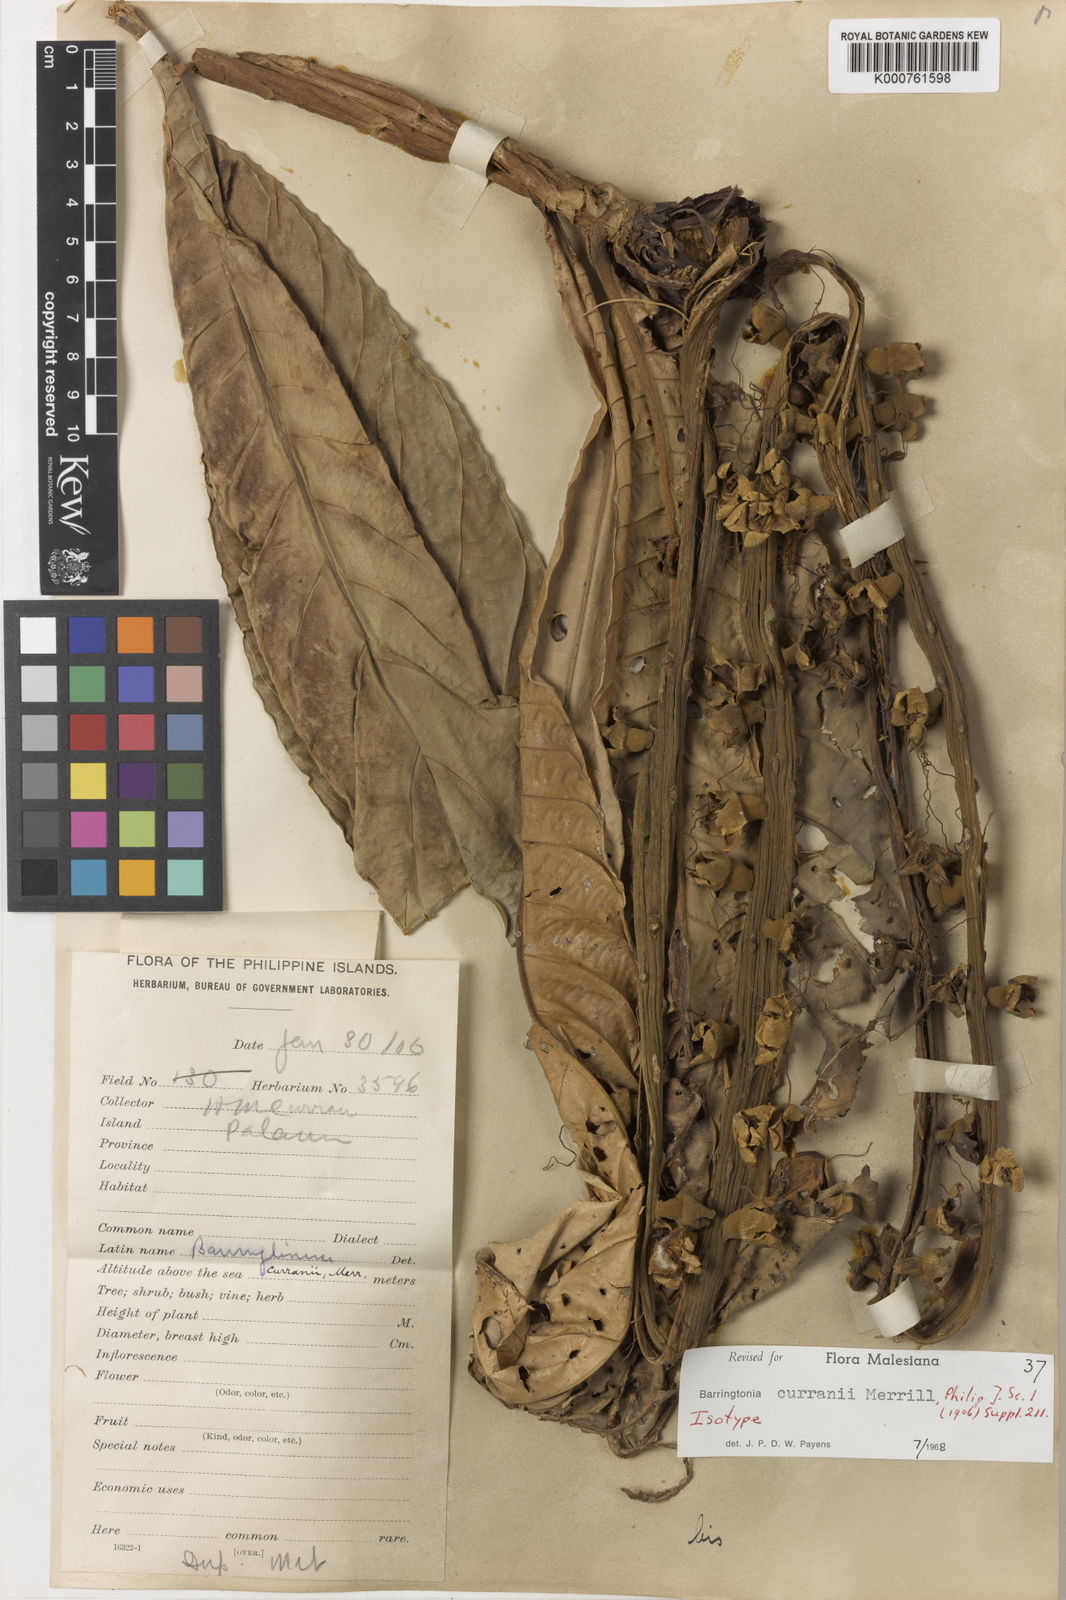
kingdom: Plantae
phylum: Tracheophyta
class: Magnoliopsida
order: Ericales
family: Lecythidaceae
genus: Barringtonia
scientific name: Barringtonia curranii
